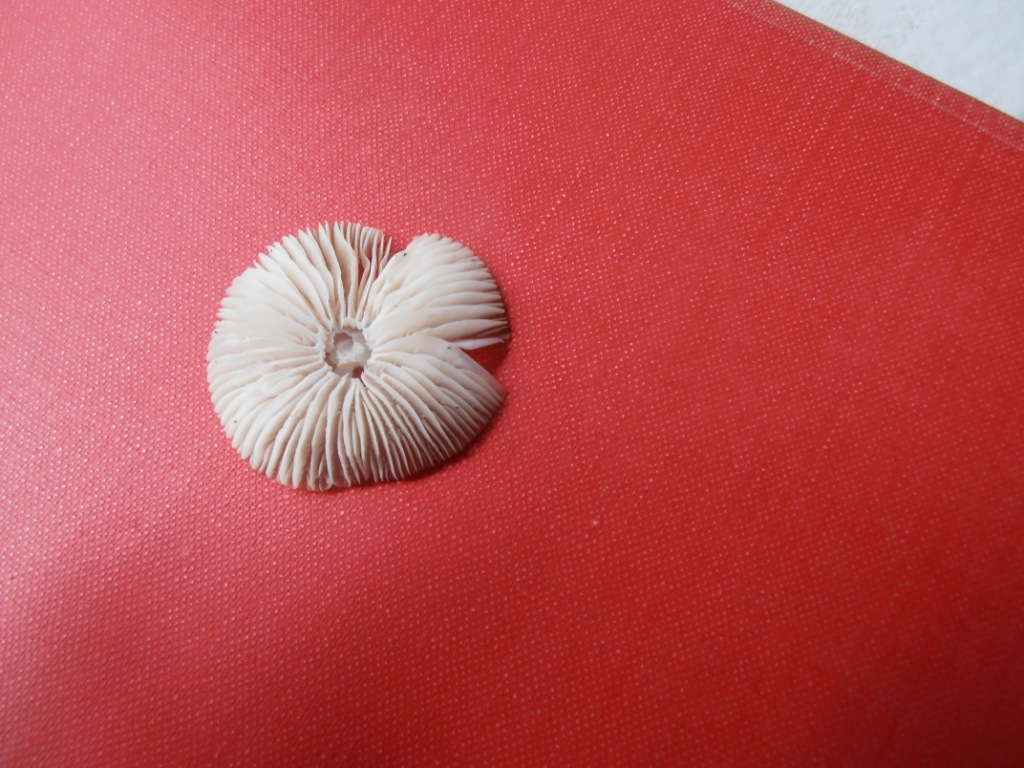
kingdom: Fungi
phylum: Basidiomycota
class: Agaricomycetes
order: Agaricales
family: Mycenaceae
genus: Mycena
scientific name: Mycena galericulata
